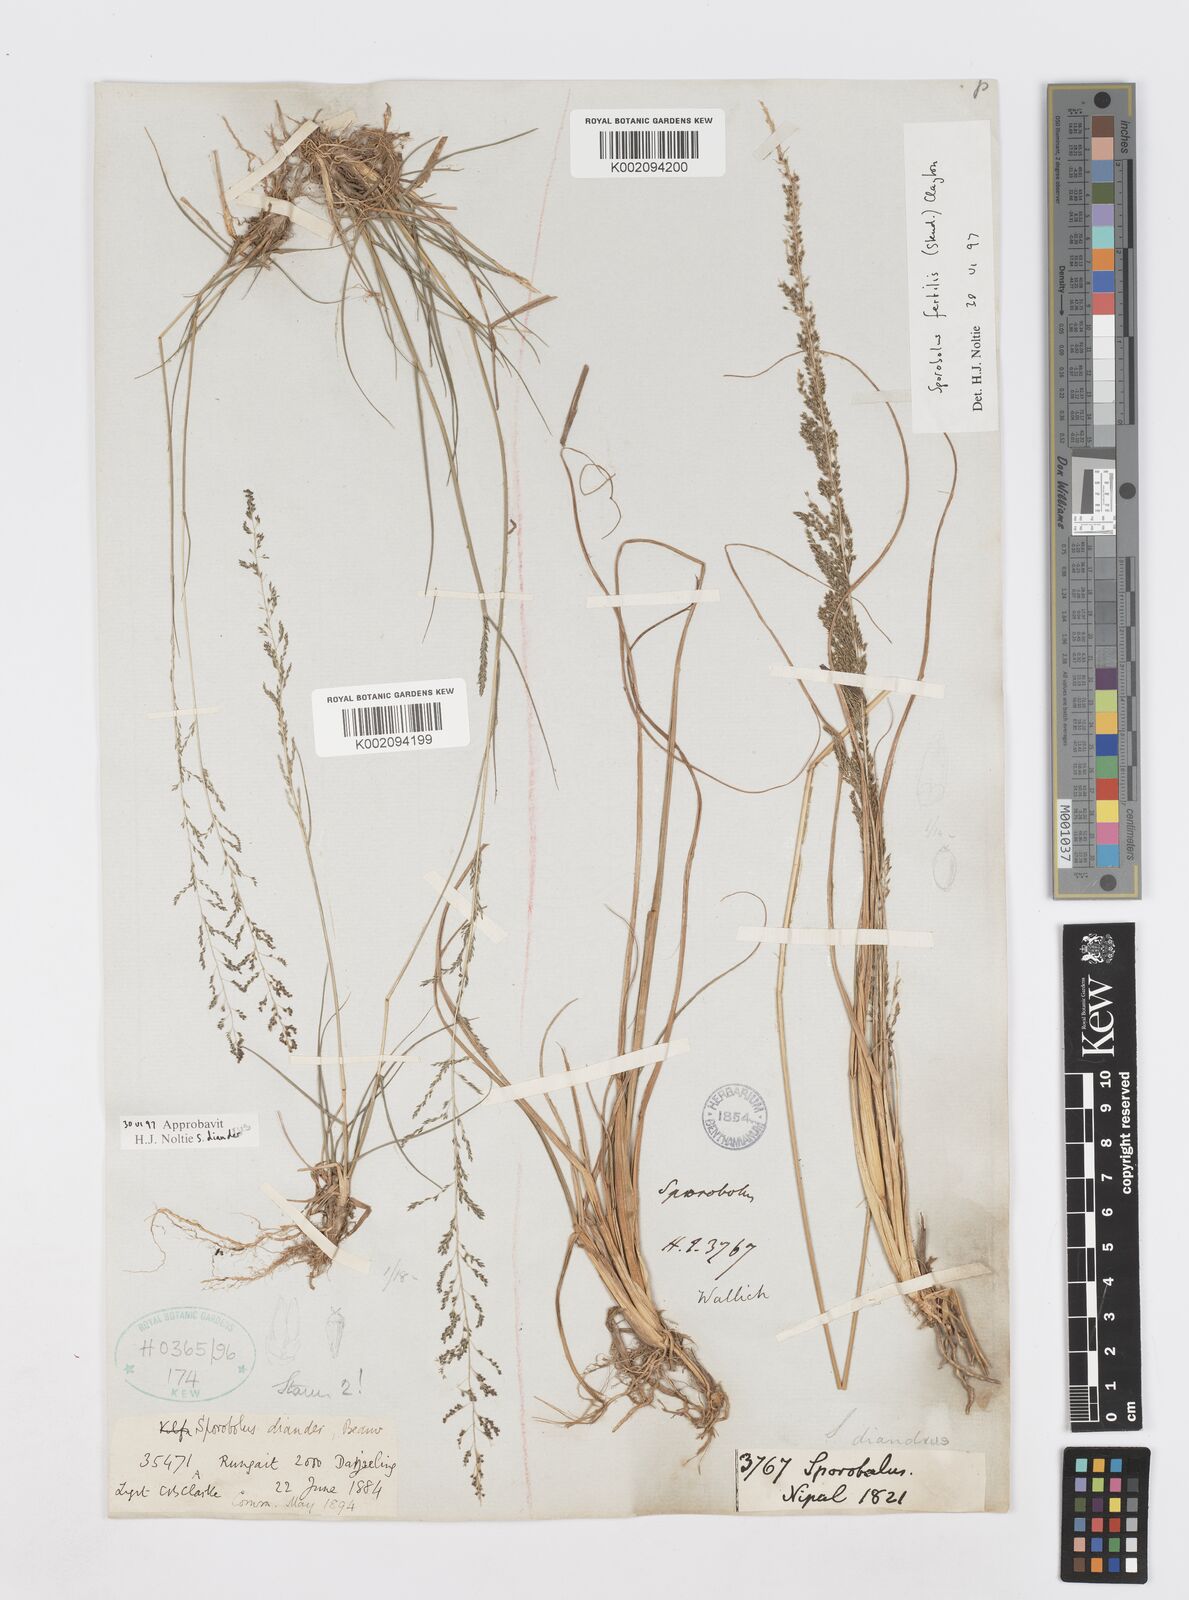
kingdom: Plantae
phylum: Tracheophyta
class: Liliopsida
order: Poales
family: Poaceae
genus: Sporobolus
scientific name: Sporobolus diandrus
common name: Tussock dropseed
